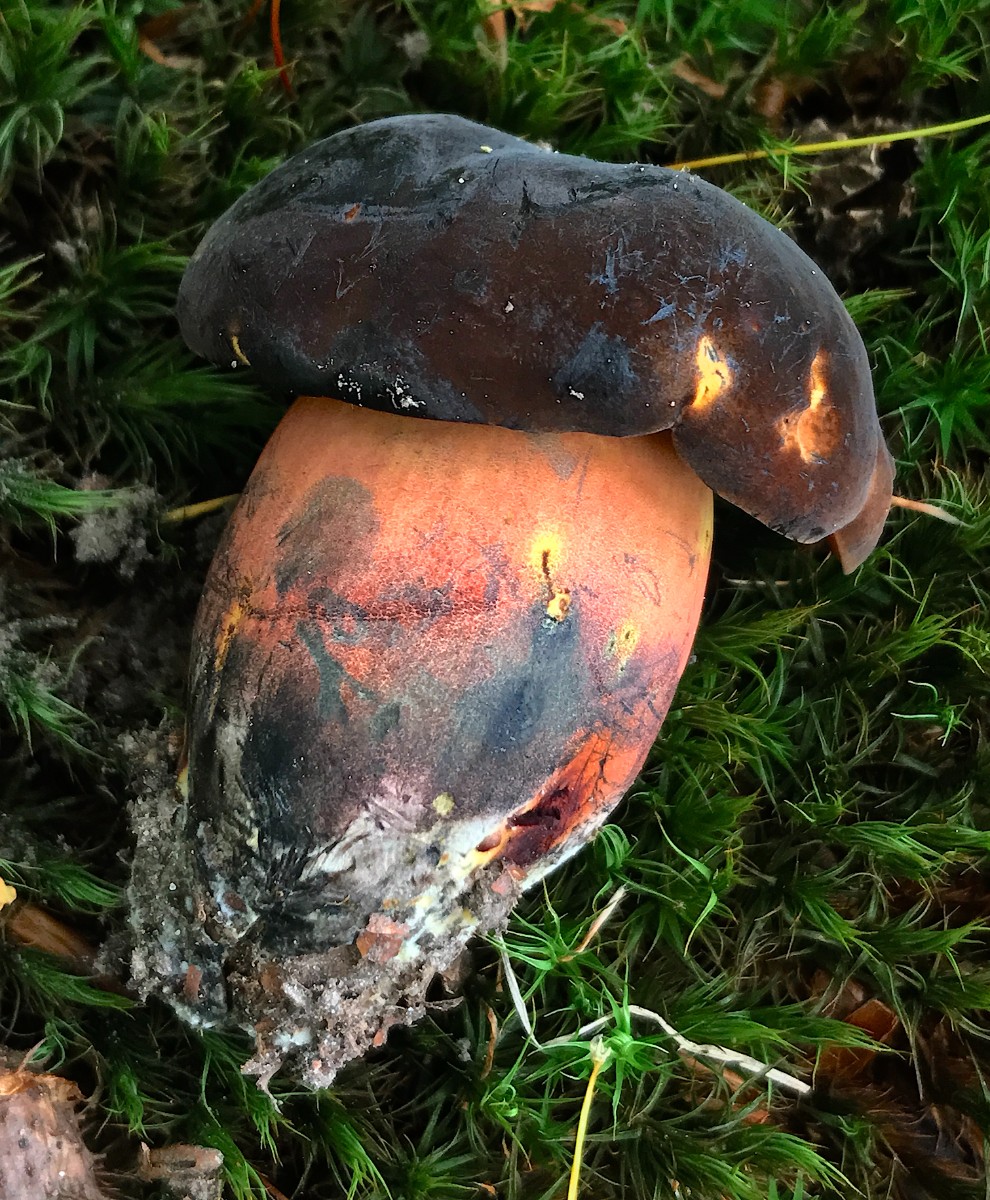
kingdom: Fungi
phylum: Basidiomycota
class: Agaricomycetes
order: Boletales
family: Boletaceae
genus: Neoboletus
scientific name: Neoboletus erythropus
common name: punktstokket indigorørhat
